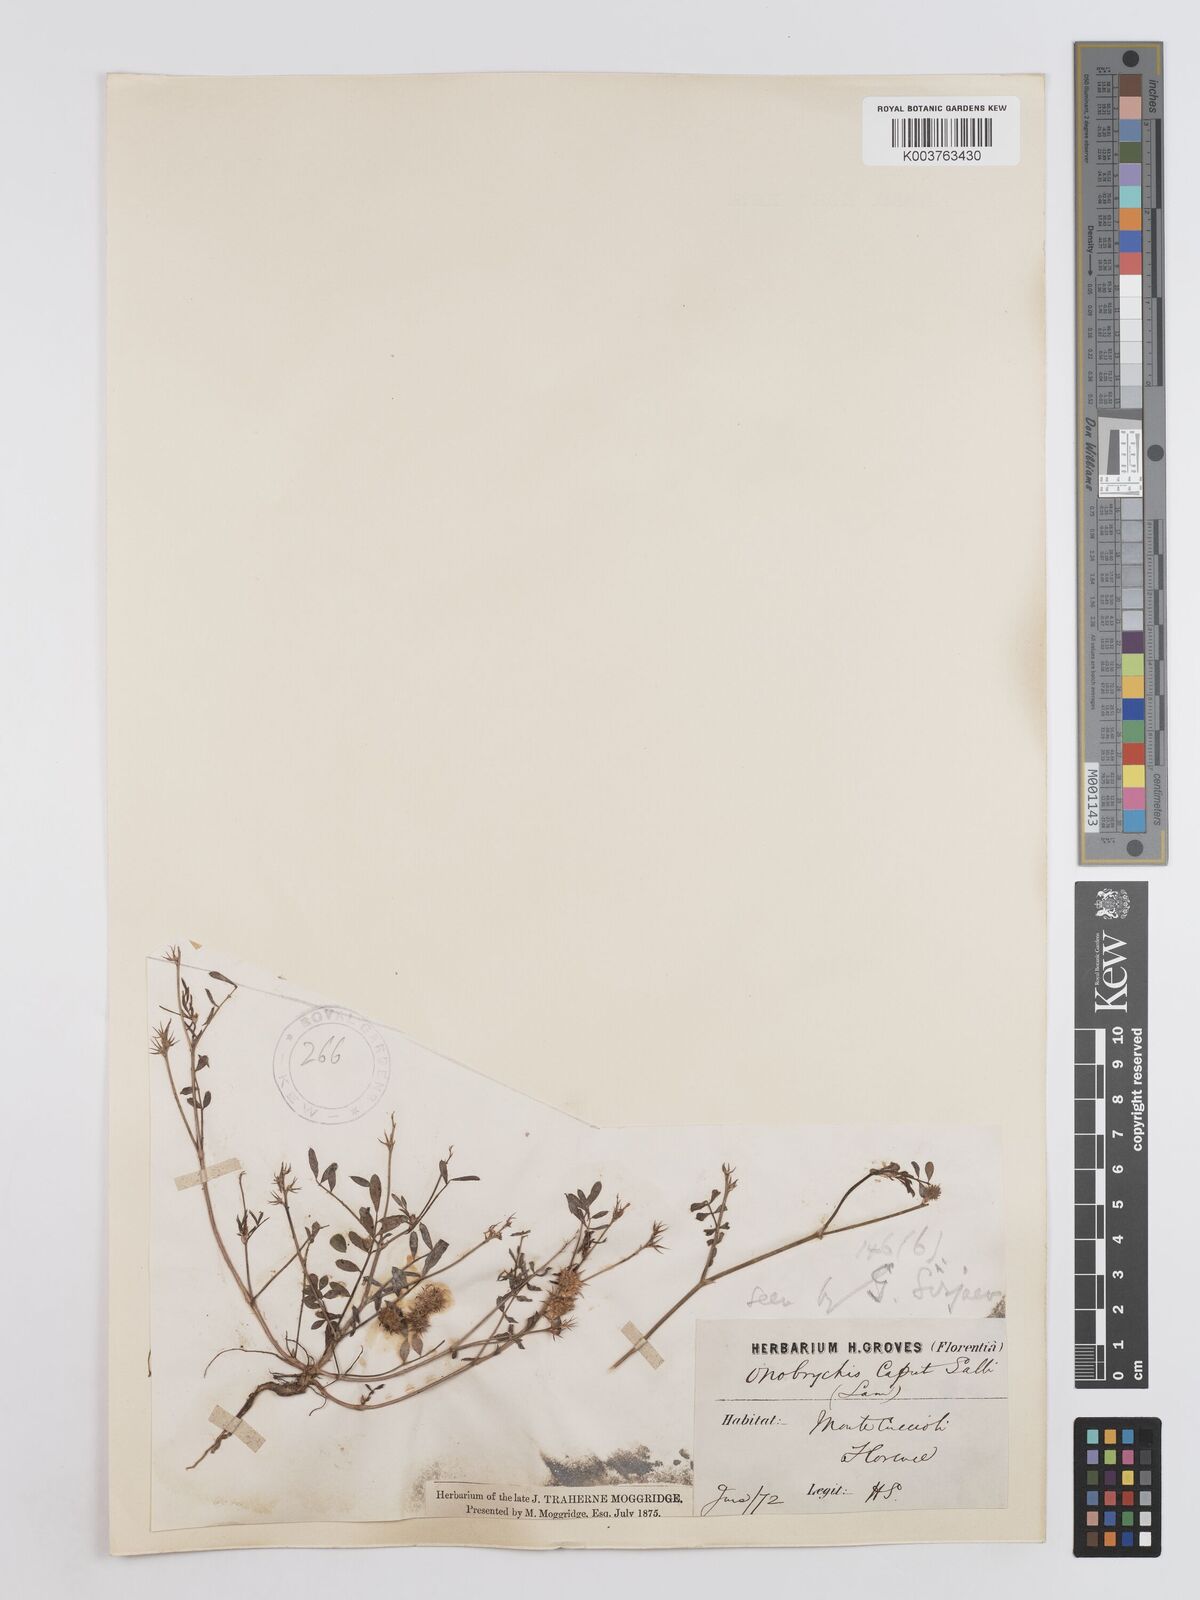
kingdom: Plantae
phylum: Tracheophyta
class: Magnoliopsida
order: Fabales
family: Fabaceae
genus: Onobrychis
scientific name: Onobrychis caput-galli
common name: Cockscomb sainfoin
